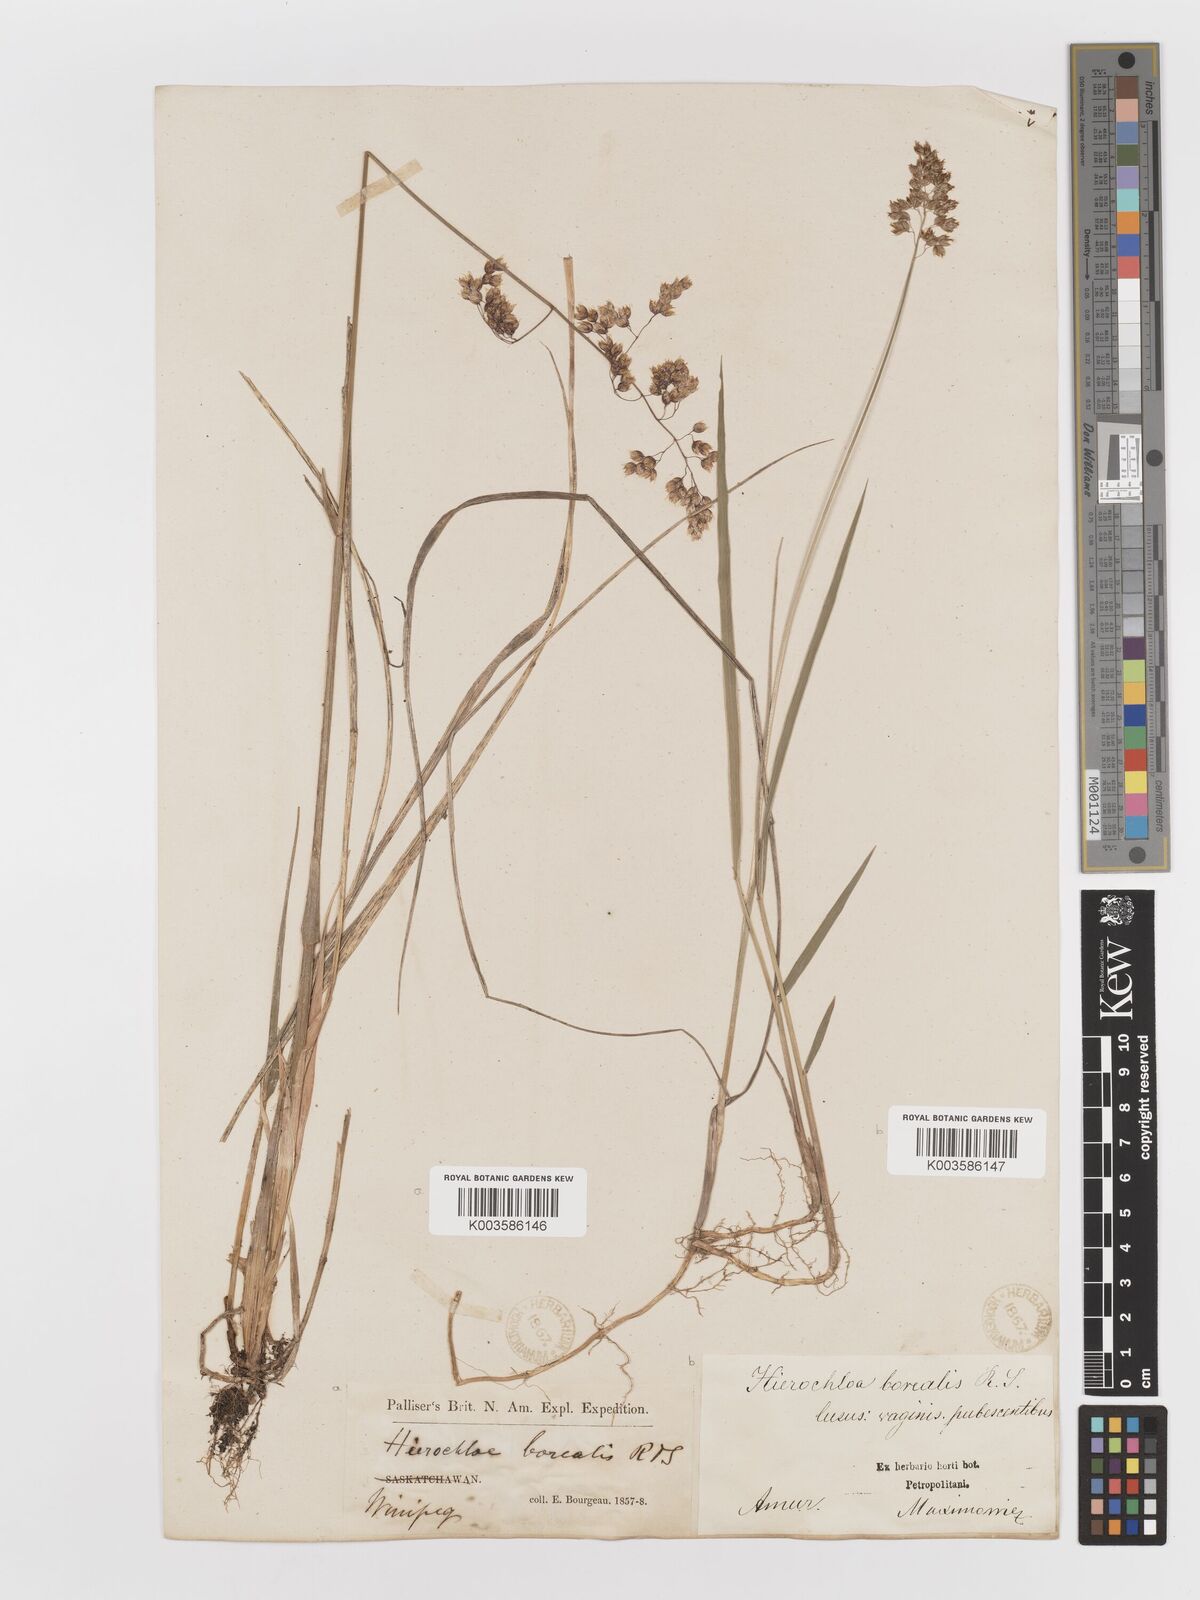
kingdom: Plantae
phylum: Tracheophyta
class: Liliopsida
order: Poales
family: Poaceae
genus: Anthoxanthum
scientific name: Anthoxanthum nitens
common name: Holy grass
